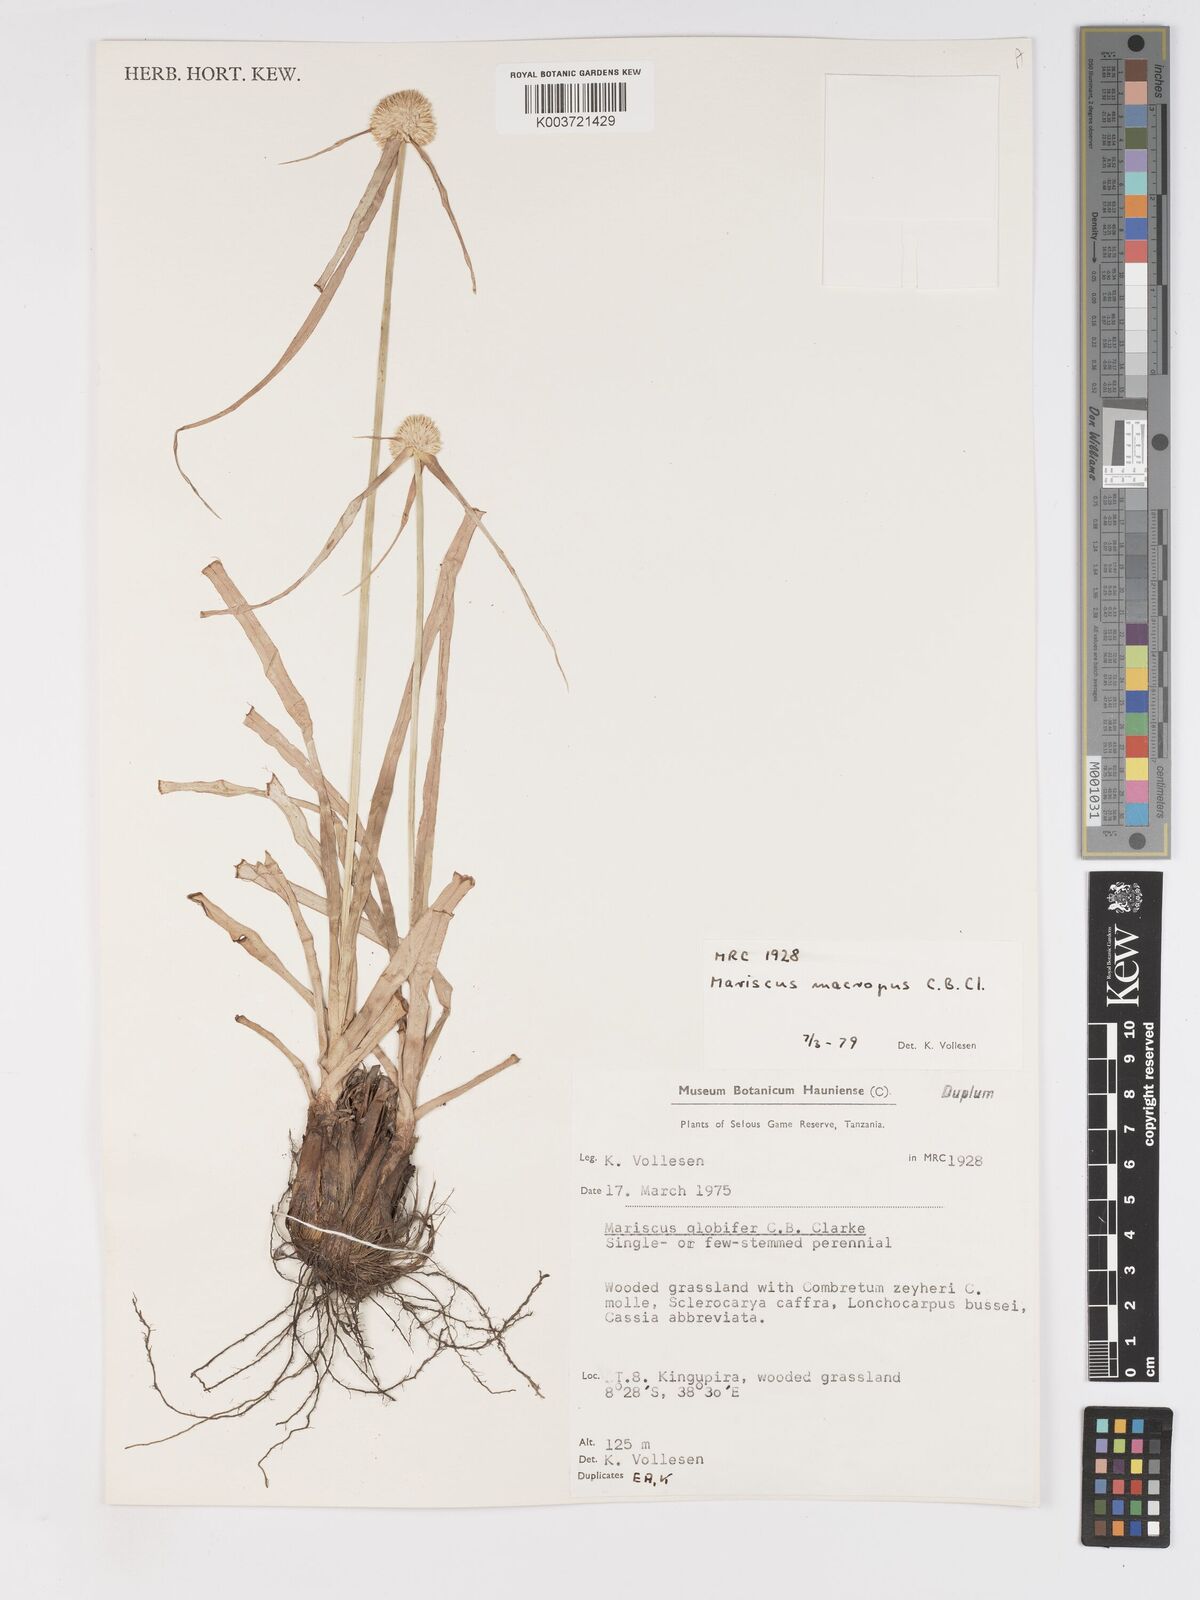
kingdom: Plantae
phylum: Tracheophyta
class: Liliopsida
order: Poales
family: Cyperaceae
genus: Cyperus
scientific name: Cyperus mollipes
